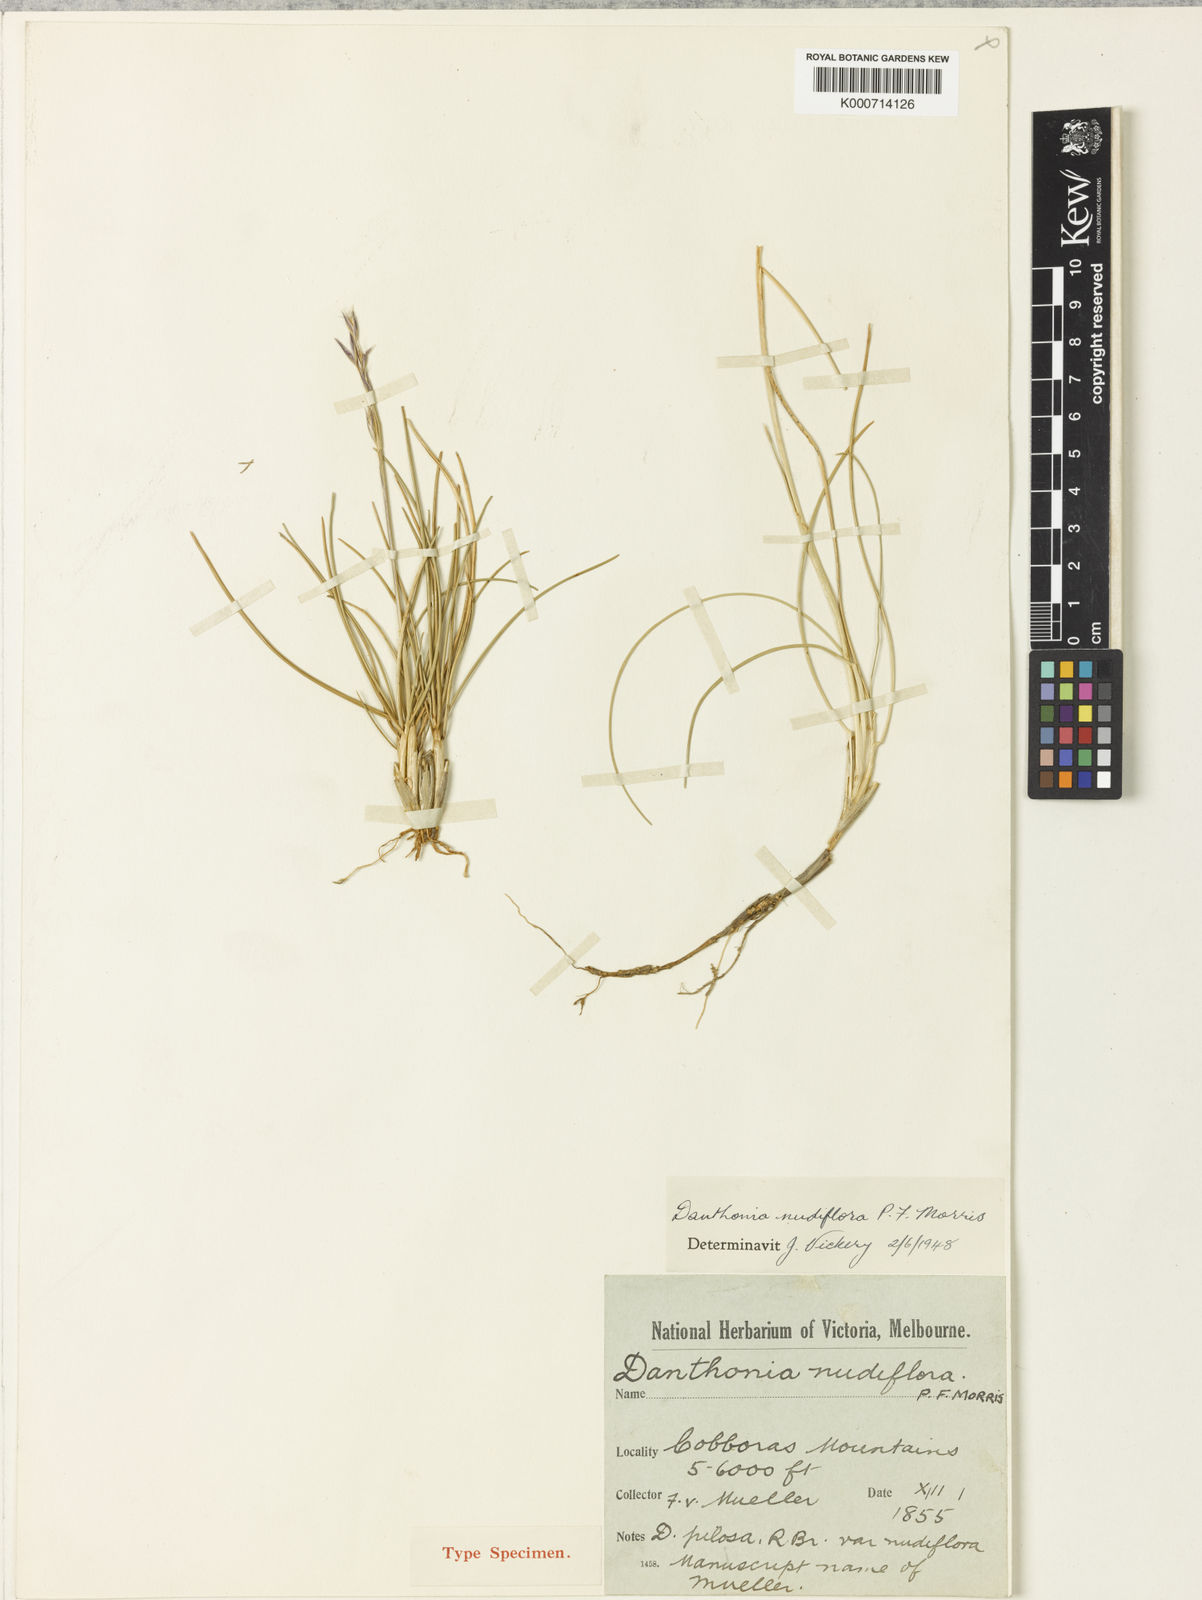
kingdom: Plantae
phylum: Tracheophyta
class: Liliopsida
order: Poales
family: Poaceae
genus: Rytidosperma
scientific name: Rytidosperma nudiflorum
